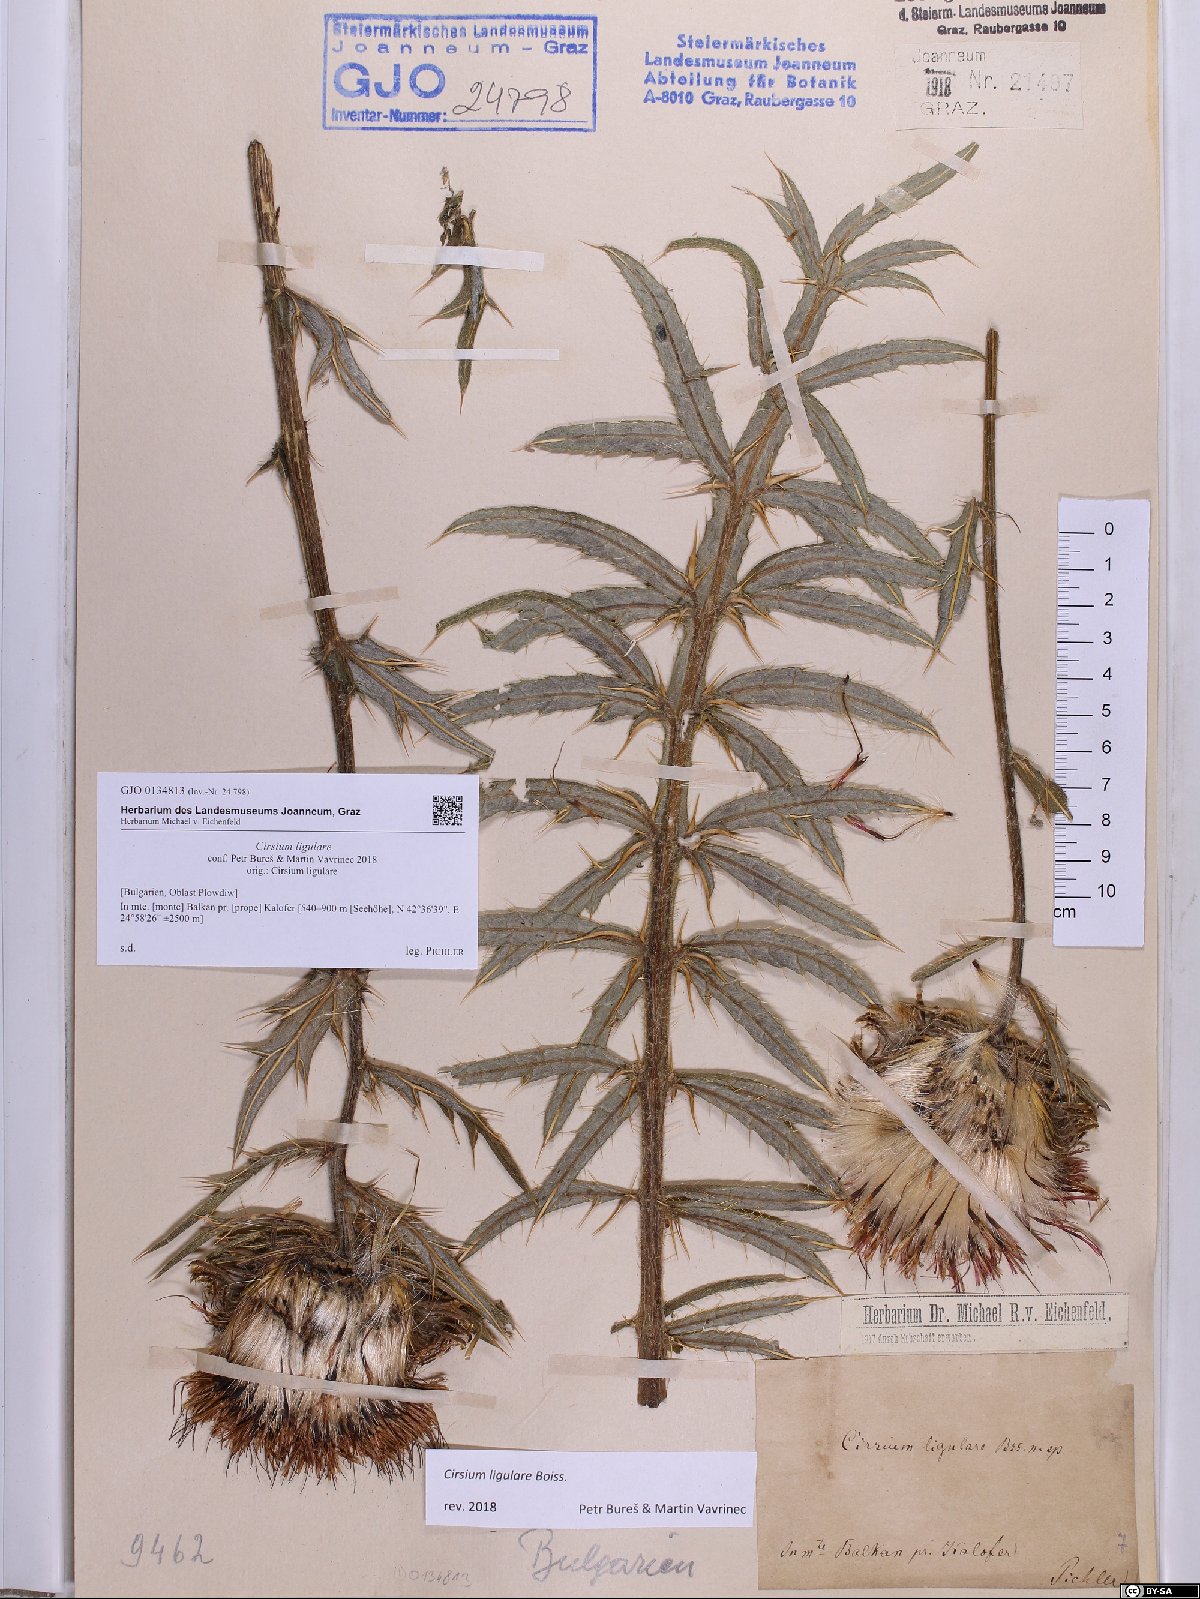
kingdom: Plantae
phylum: Tracheophyta
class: Magnoliopsida
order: Asterales
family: Asteraceae
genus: Lophiolepis
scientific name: Lophiolepis ligularis
